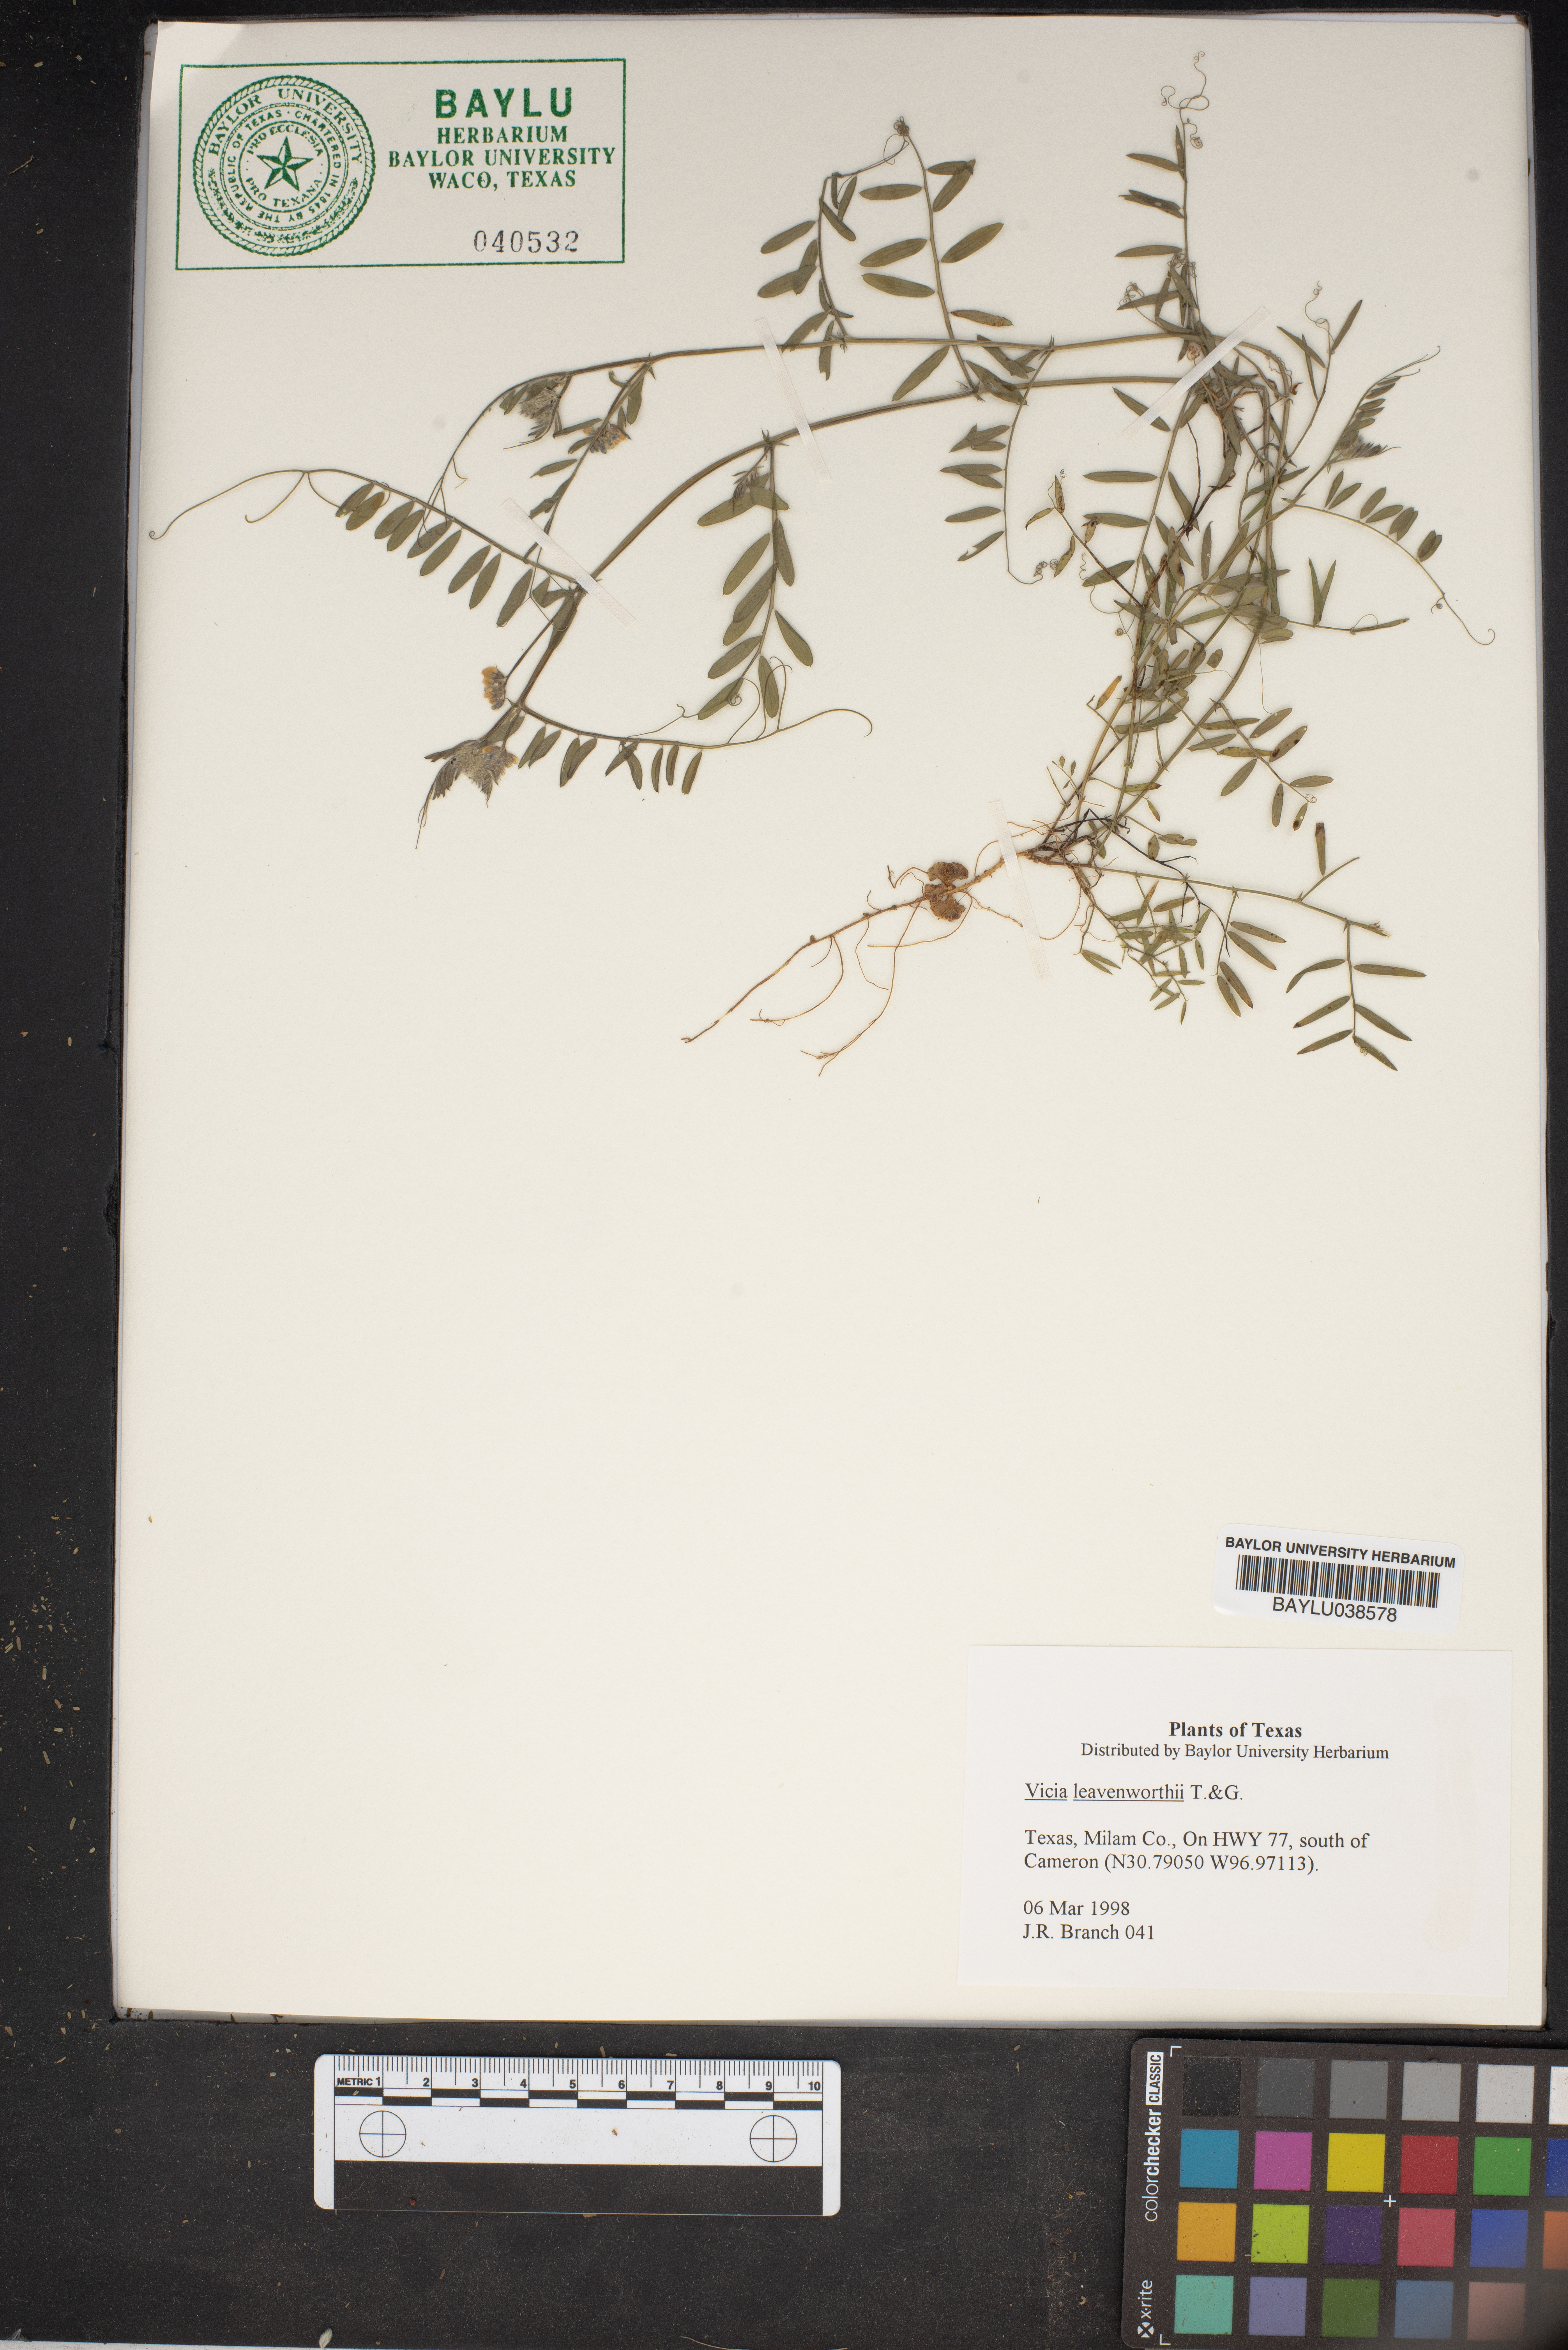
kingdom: Plantae
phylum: Tracheophyta
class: Magnoliopsida
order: Fabales
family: Fabaceae
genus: Vicia
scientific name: Vicia ludoviciana
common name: Louisiana vetch
